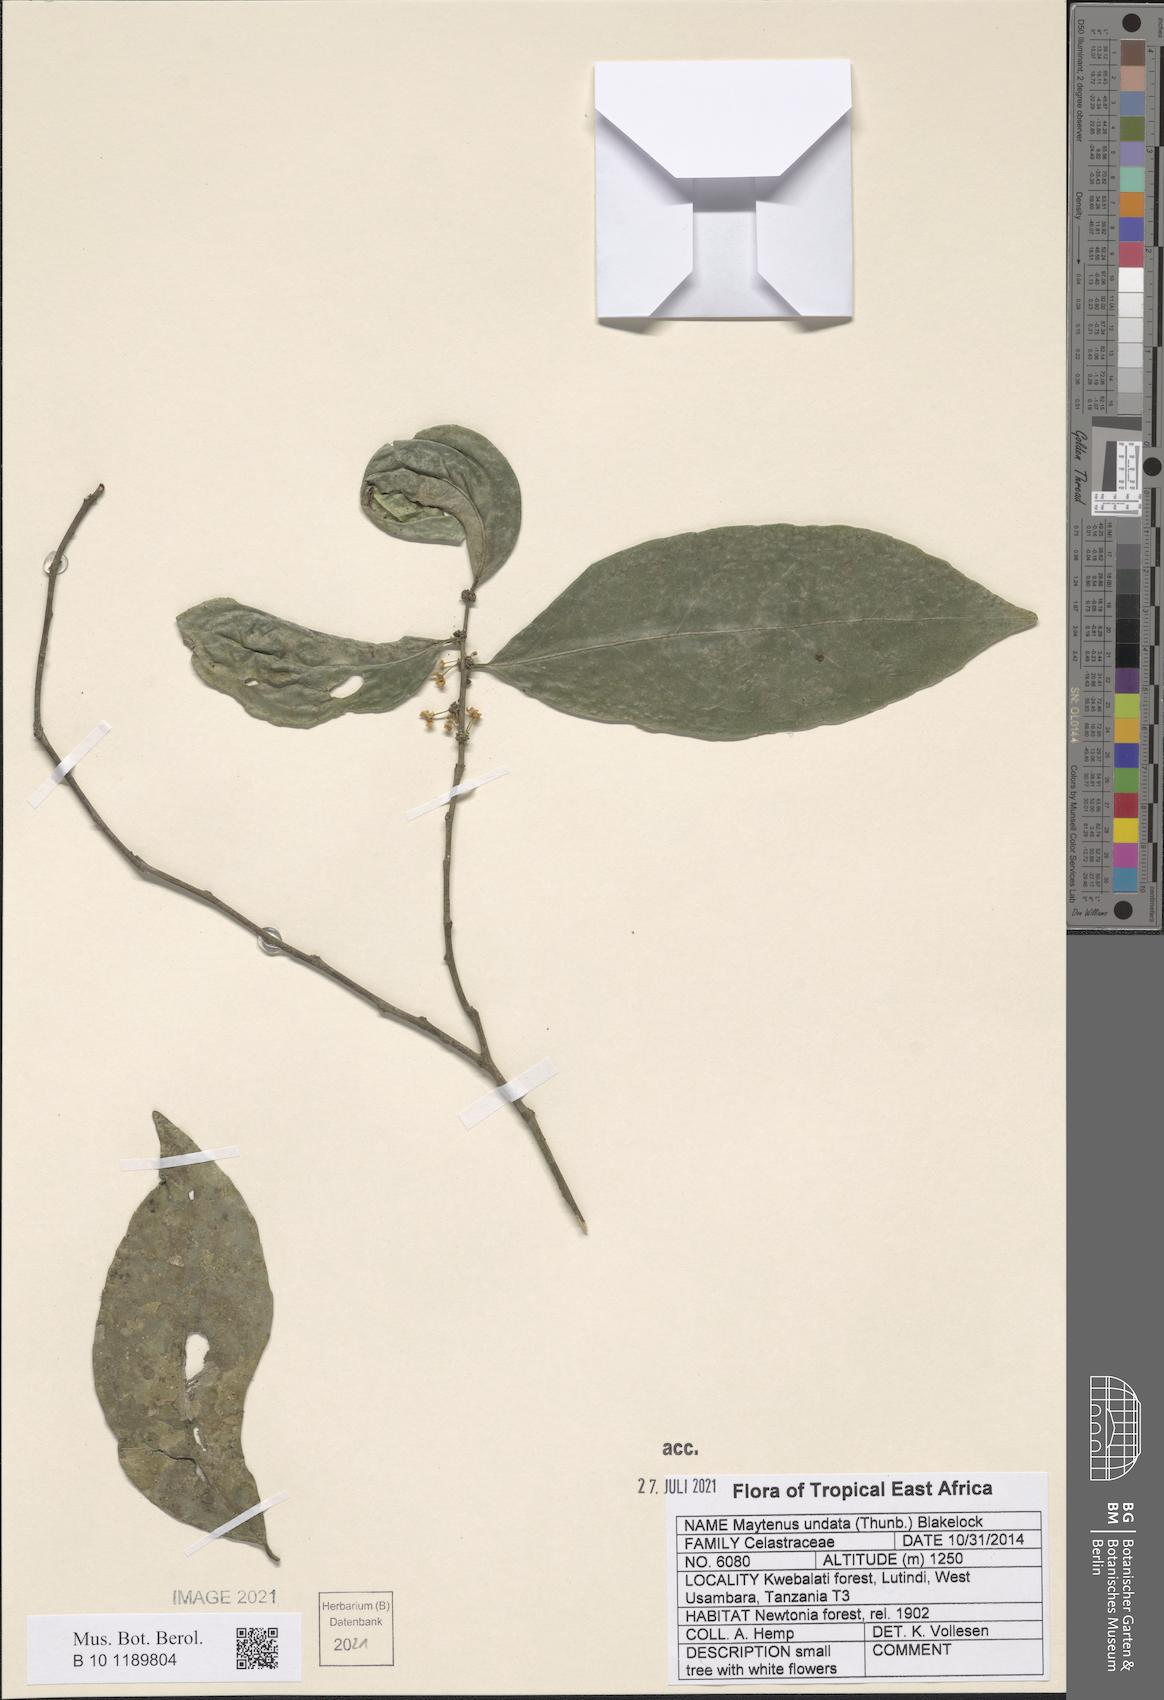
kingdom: Plantae
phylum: Tracheophyta
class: Magnoliopsida
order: Celastrales
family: Celastraceae
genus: Gymnosporia
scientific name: Gymnosporia undata
